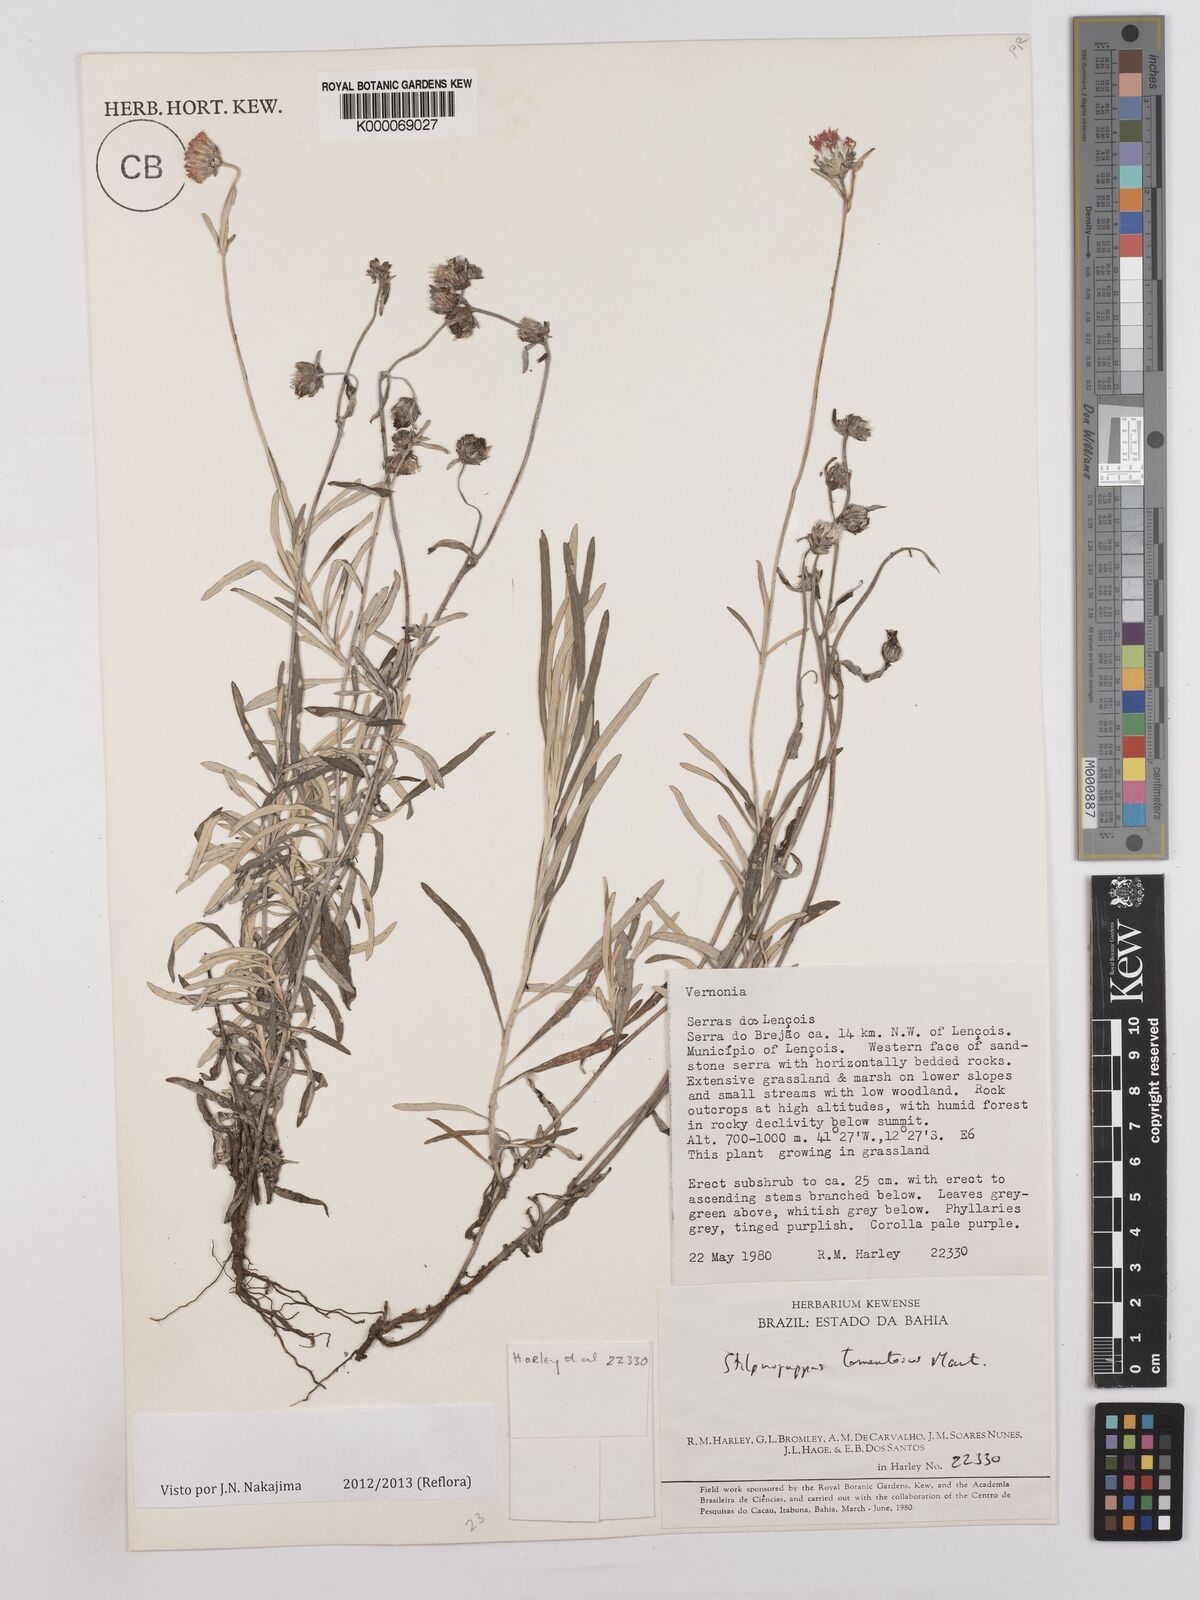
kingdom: Plantae
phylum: Tracheophyta
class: Magnoliopsida
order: Asterales
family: Asteraceae
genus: Stilpnopappus
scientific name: Stilpnopappus tomentosus
